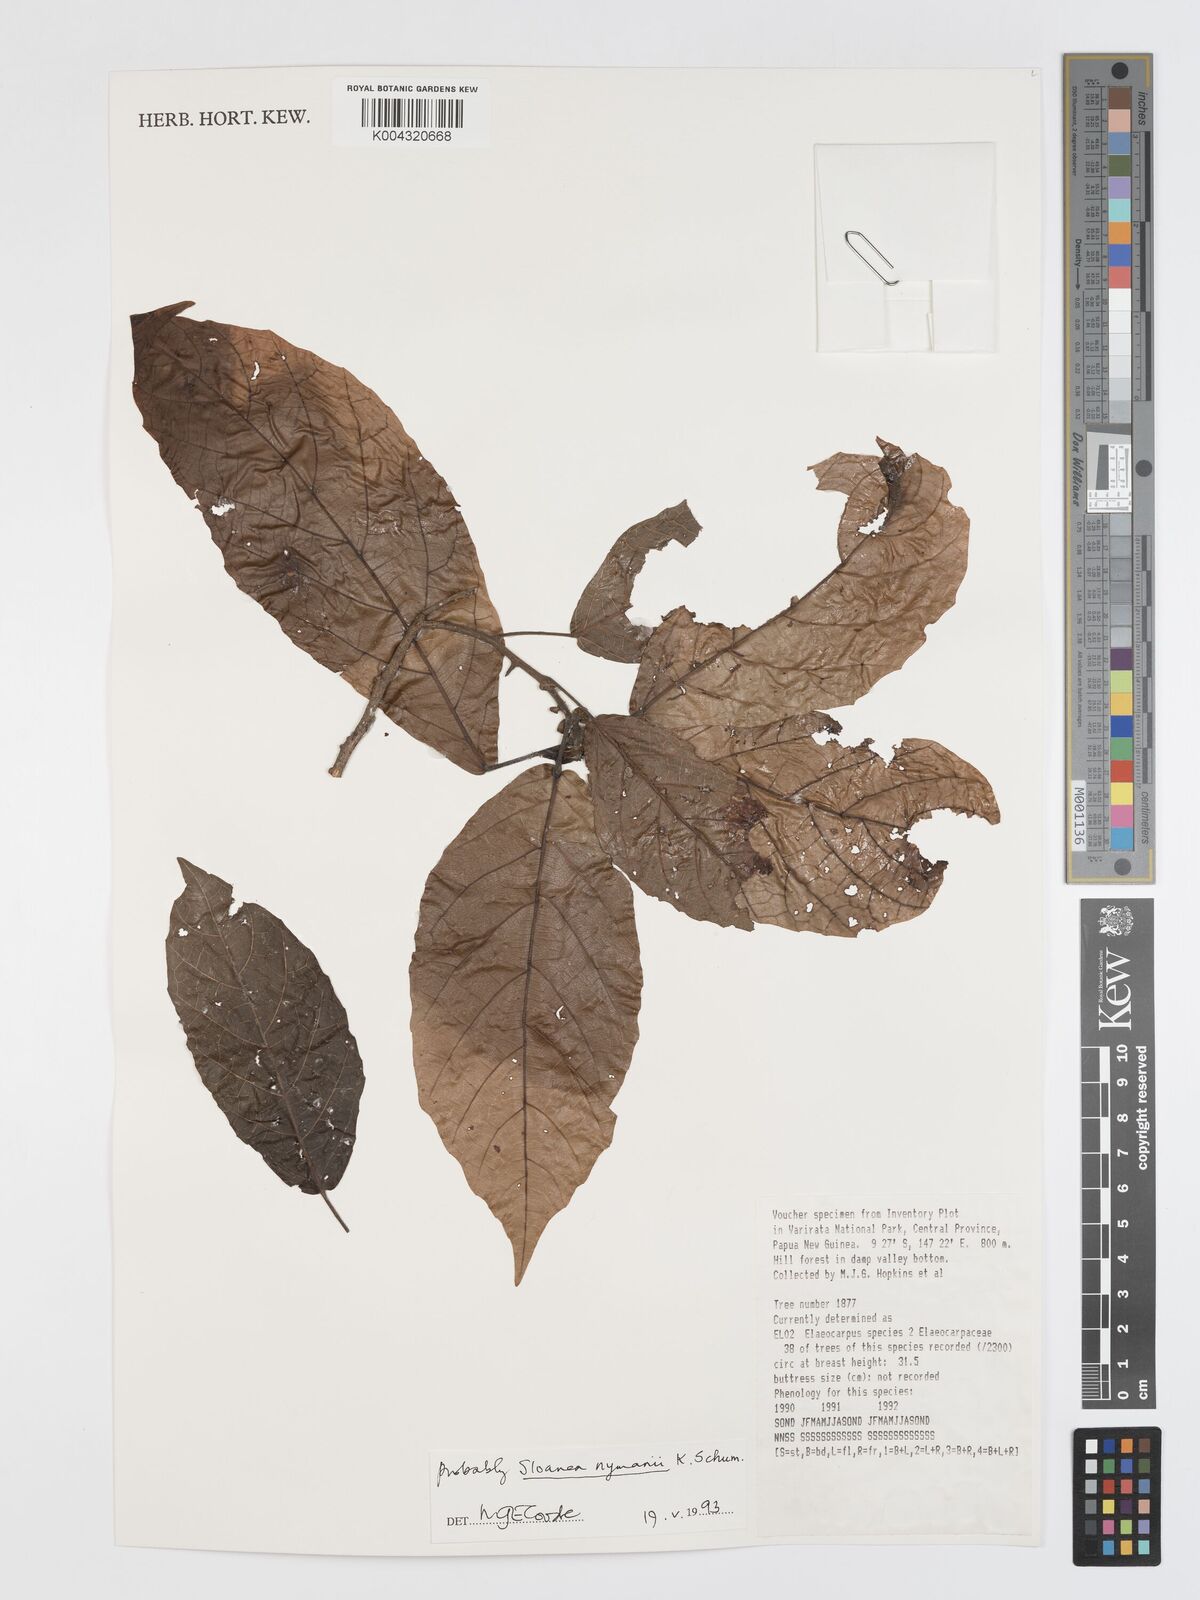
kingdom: Plantae
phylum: Tracheophyta
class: Magnoliopsida
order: Oxalidales
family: Elaeocarpaceae
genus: Sloanea
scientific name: Sloanea nymanii
